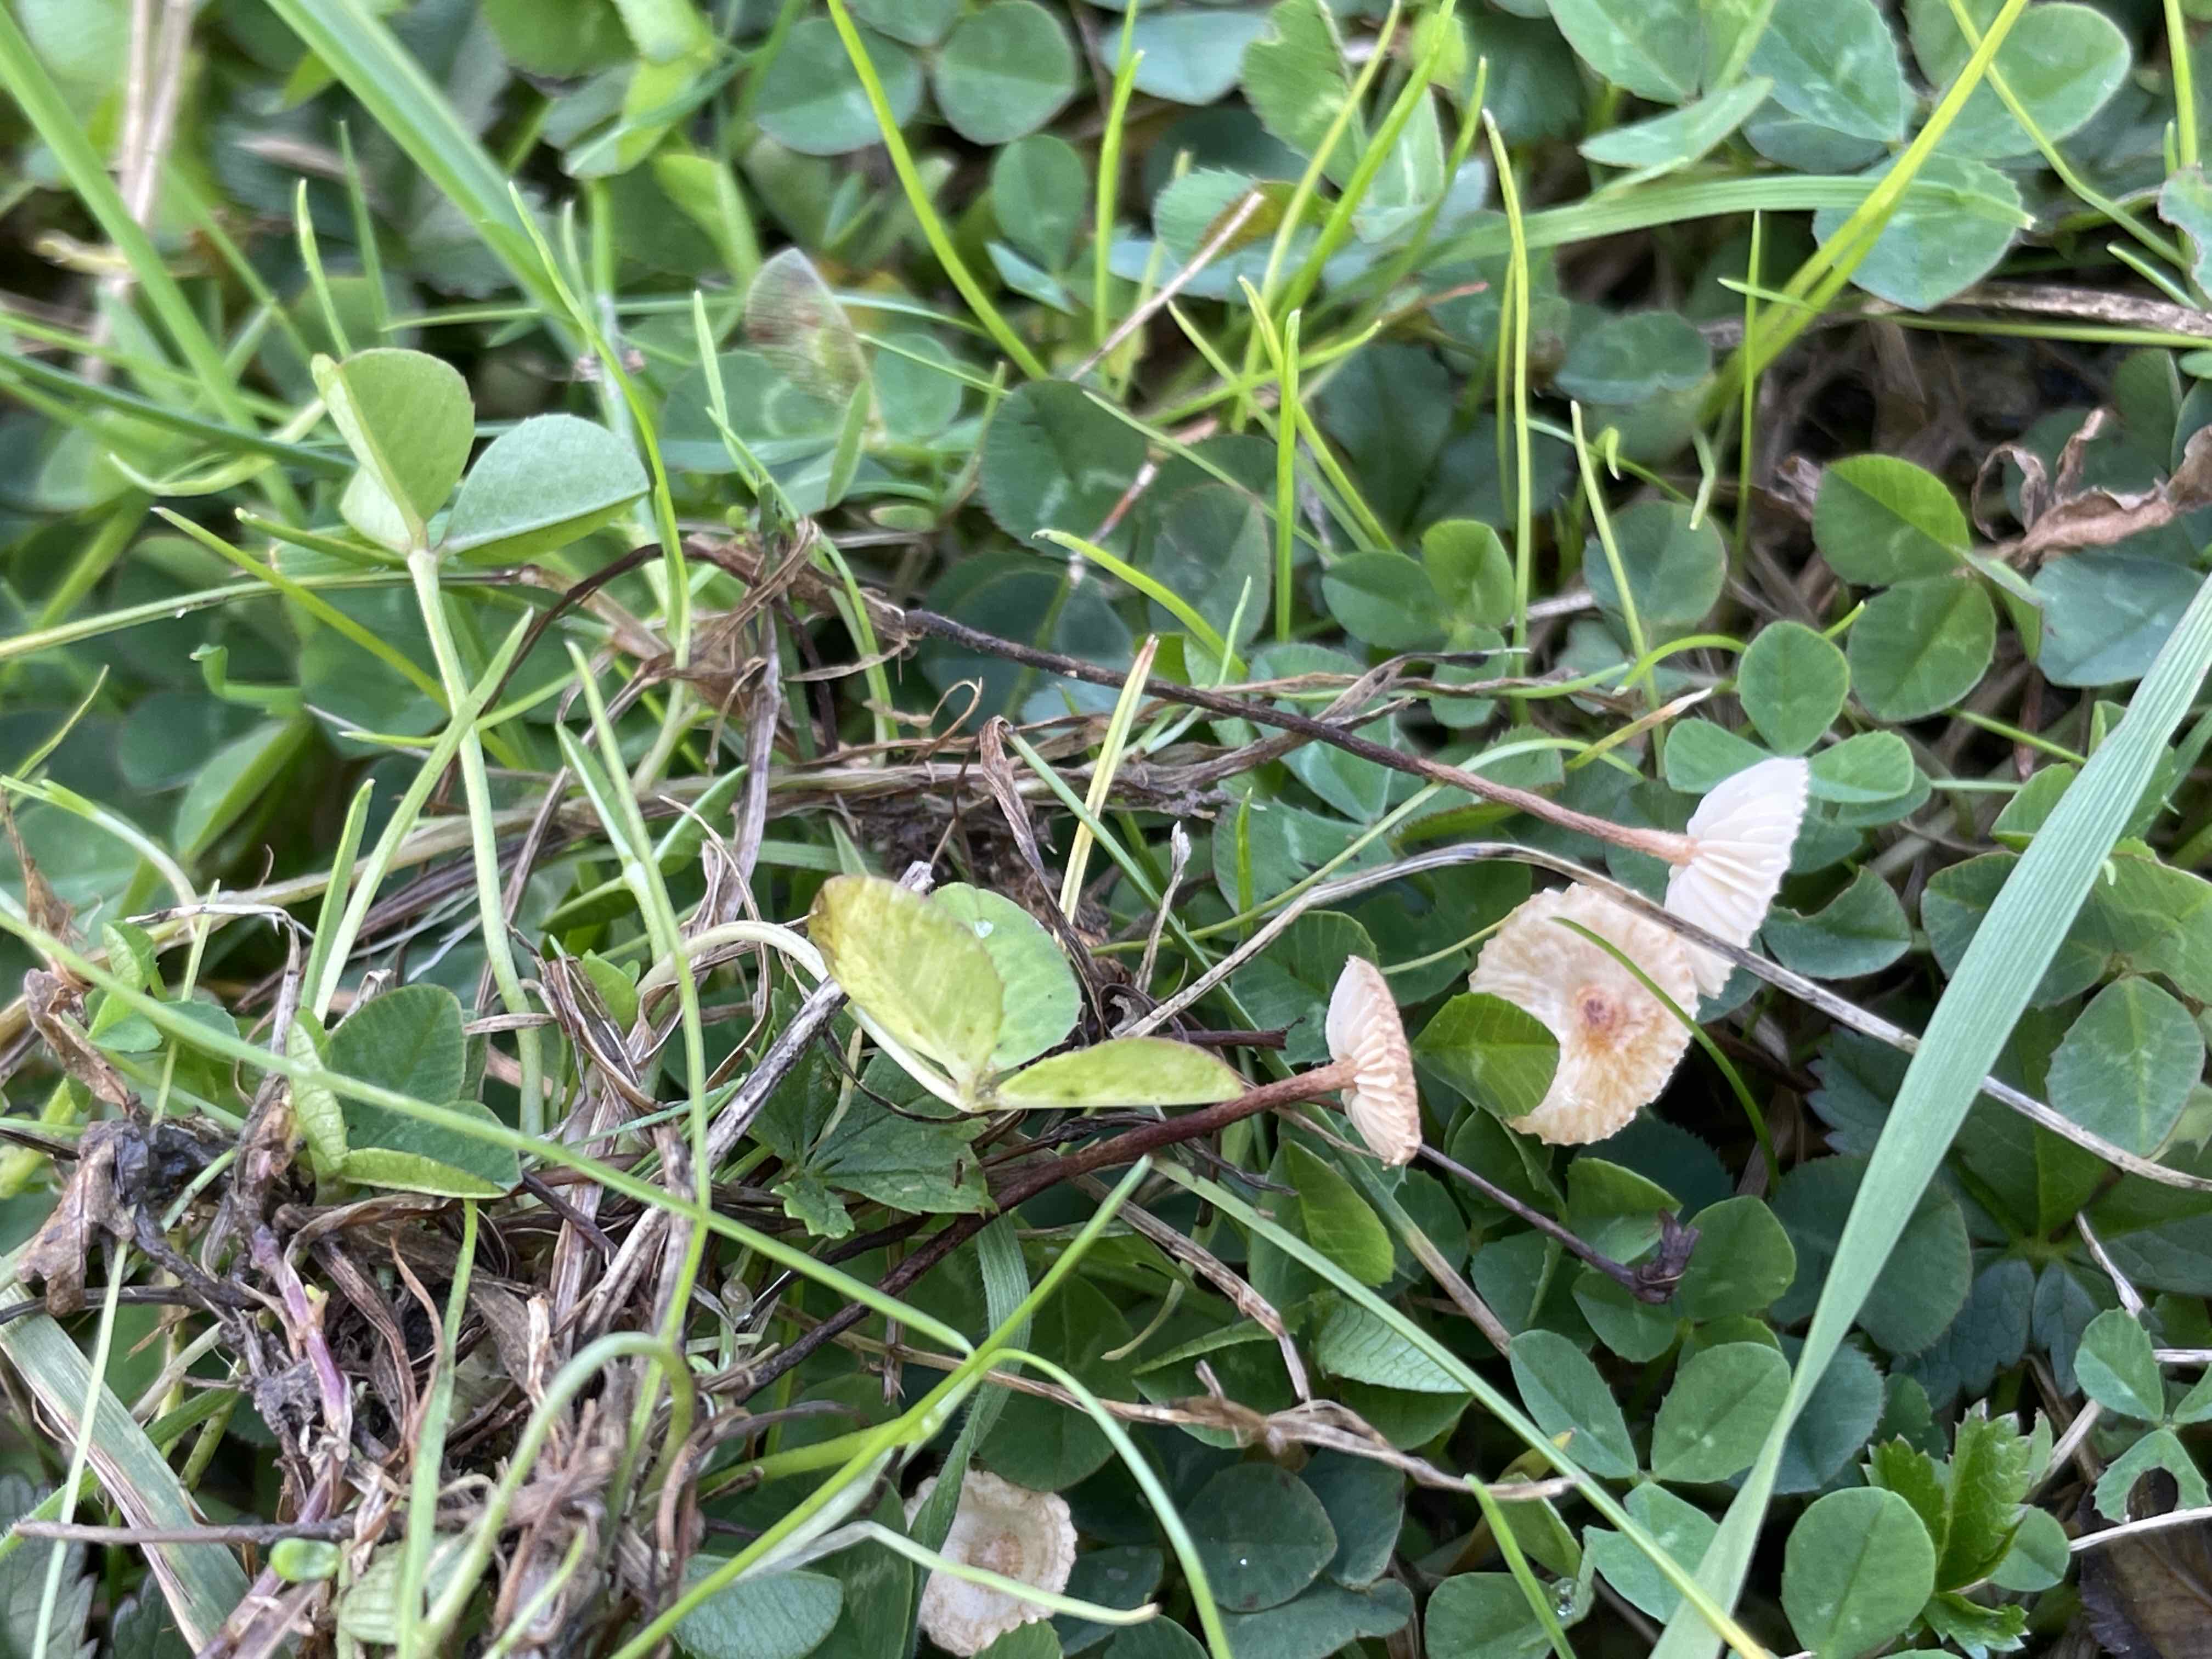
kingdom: Fungi
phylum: Basidiomycota
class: Agaricomycetes
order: Agaricales
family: Marasmiaceae
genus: Crinipellis
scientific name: Crinipellis scabella
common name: børstefod
